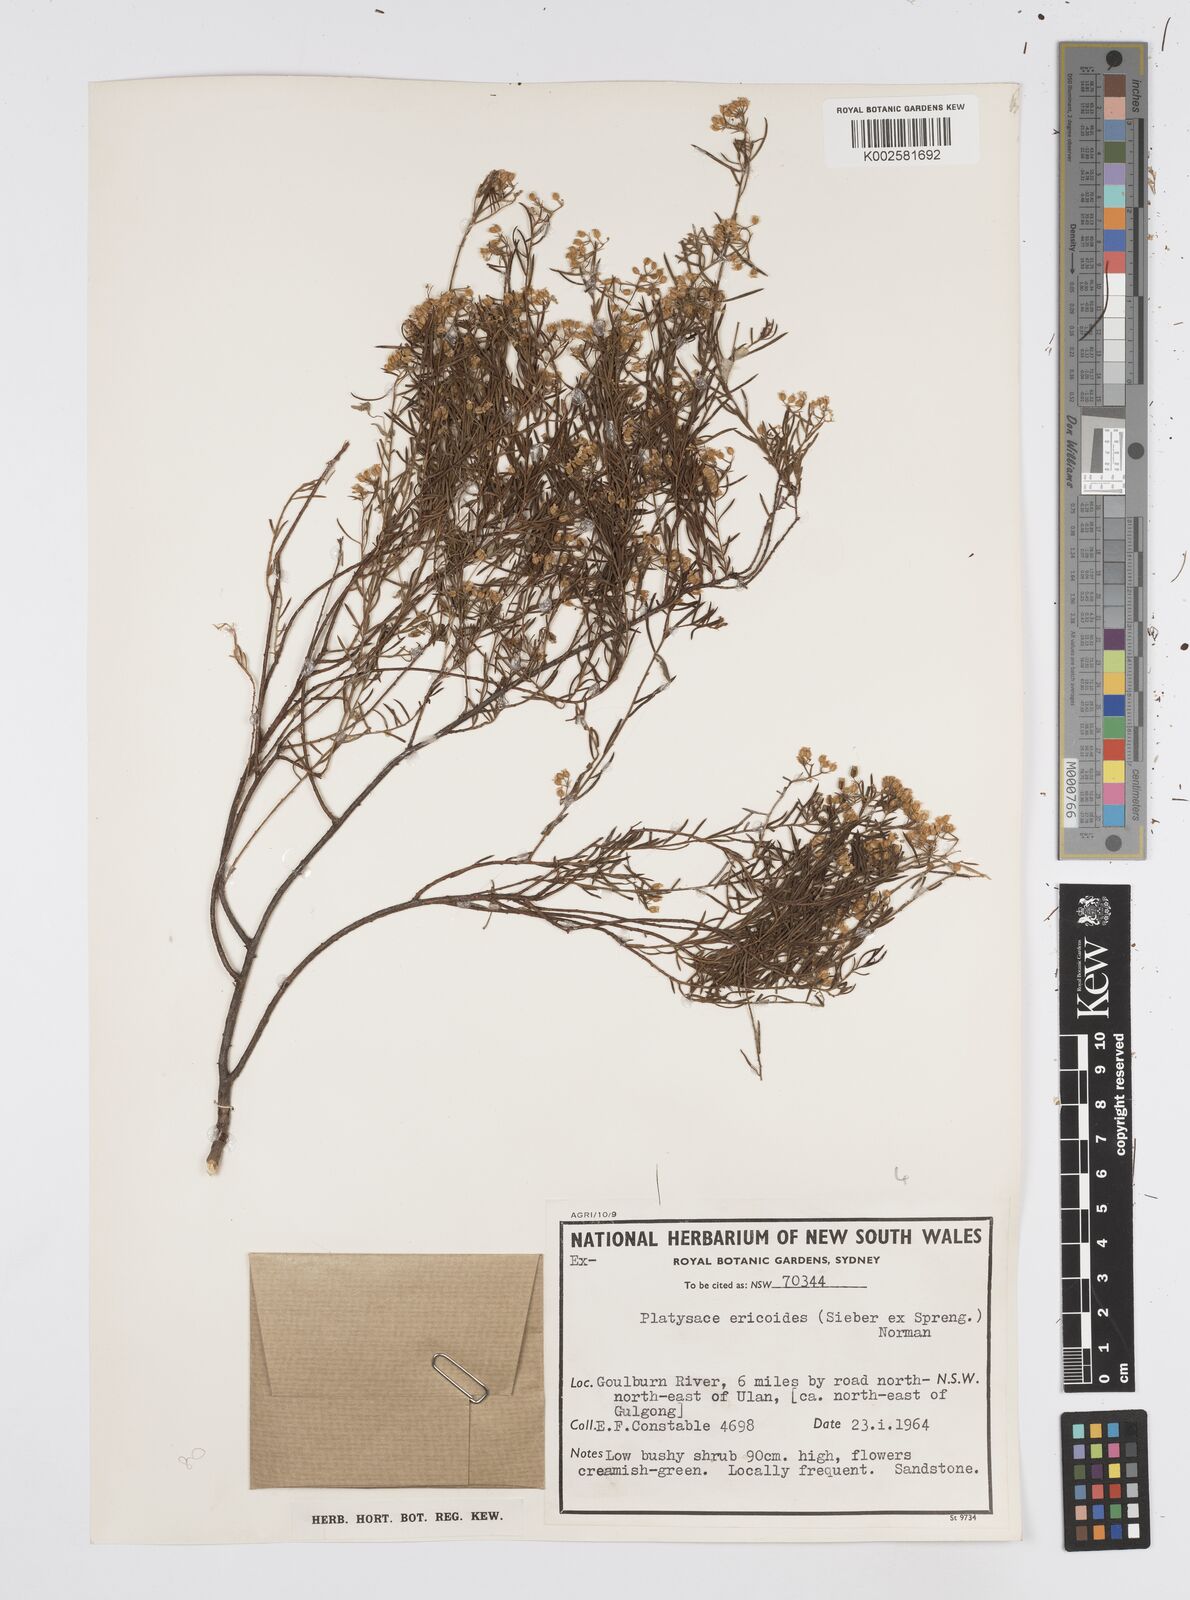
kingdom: Plantae
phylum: Tracheophyta
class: Magnoliopsida
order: Apiales
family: Apiaceae
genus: Platysace
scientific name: Platysace ericoides
